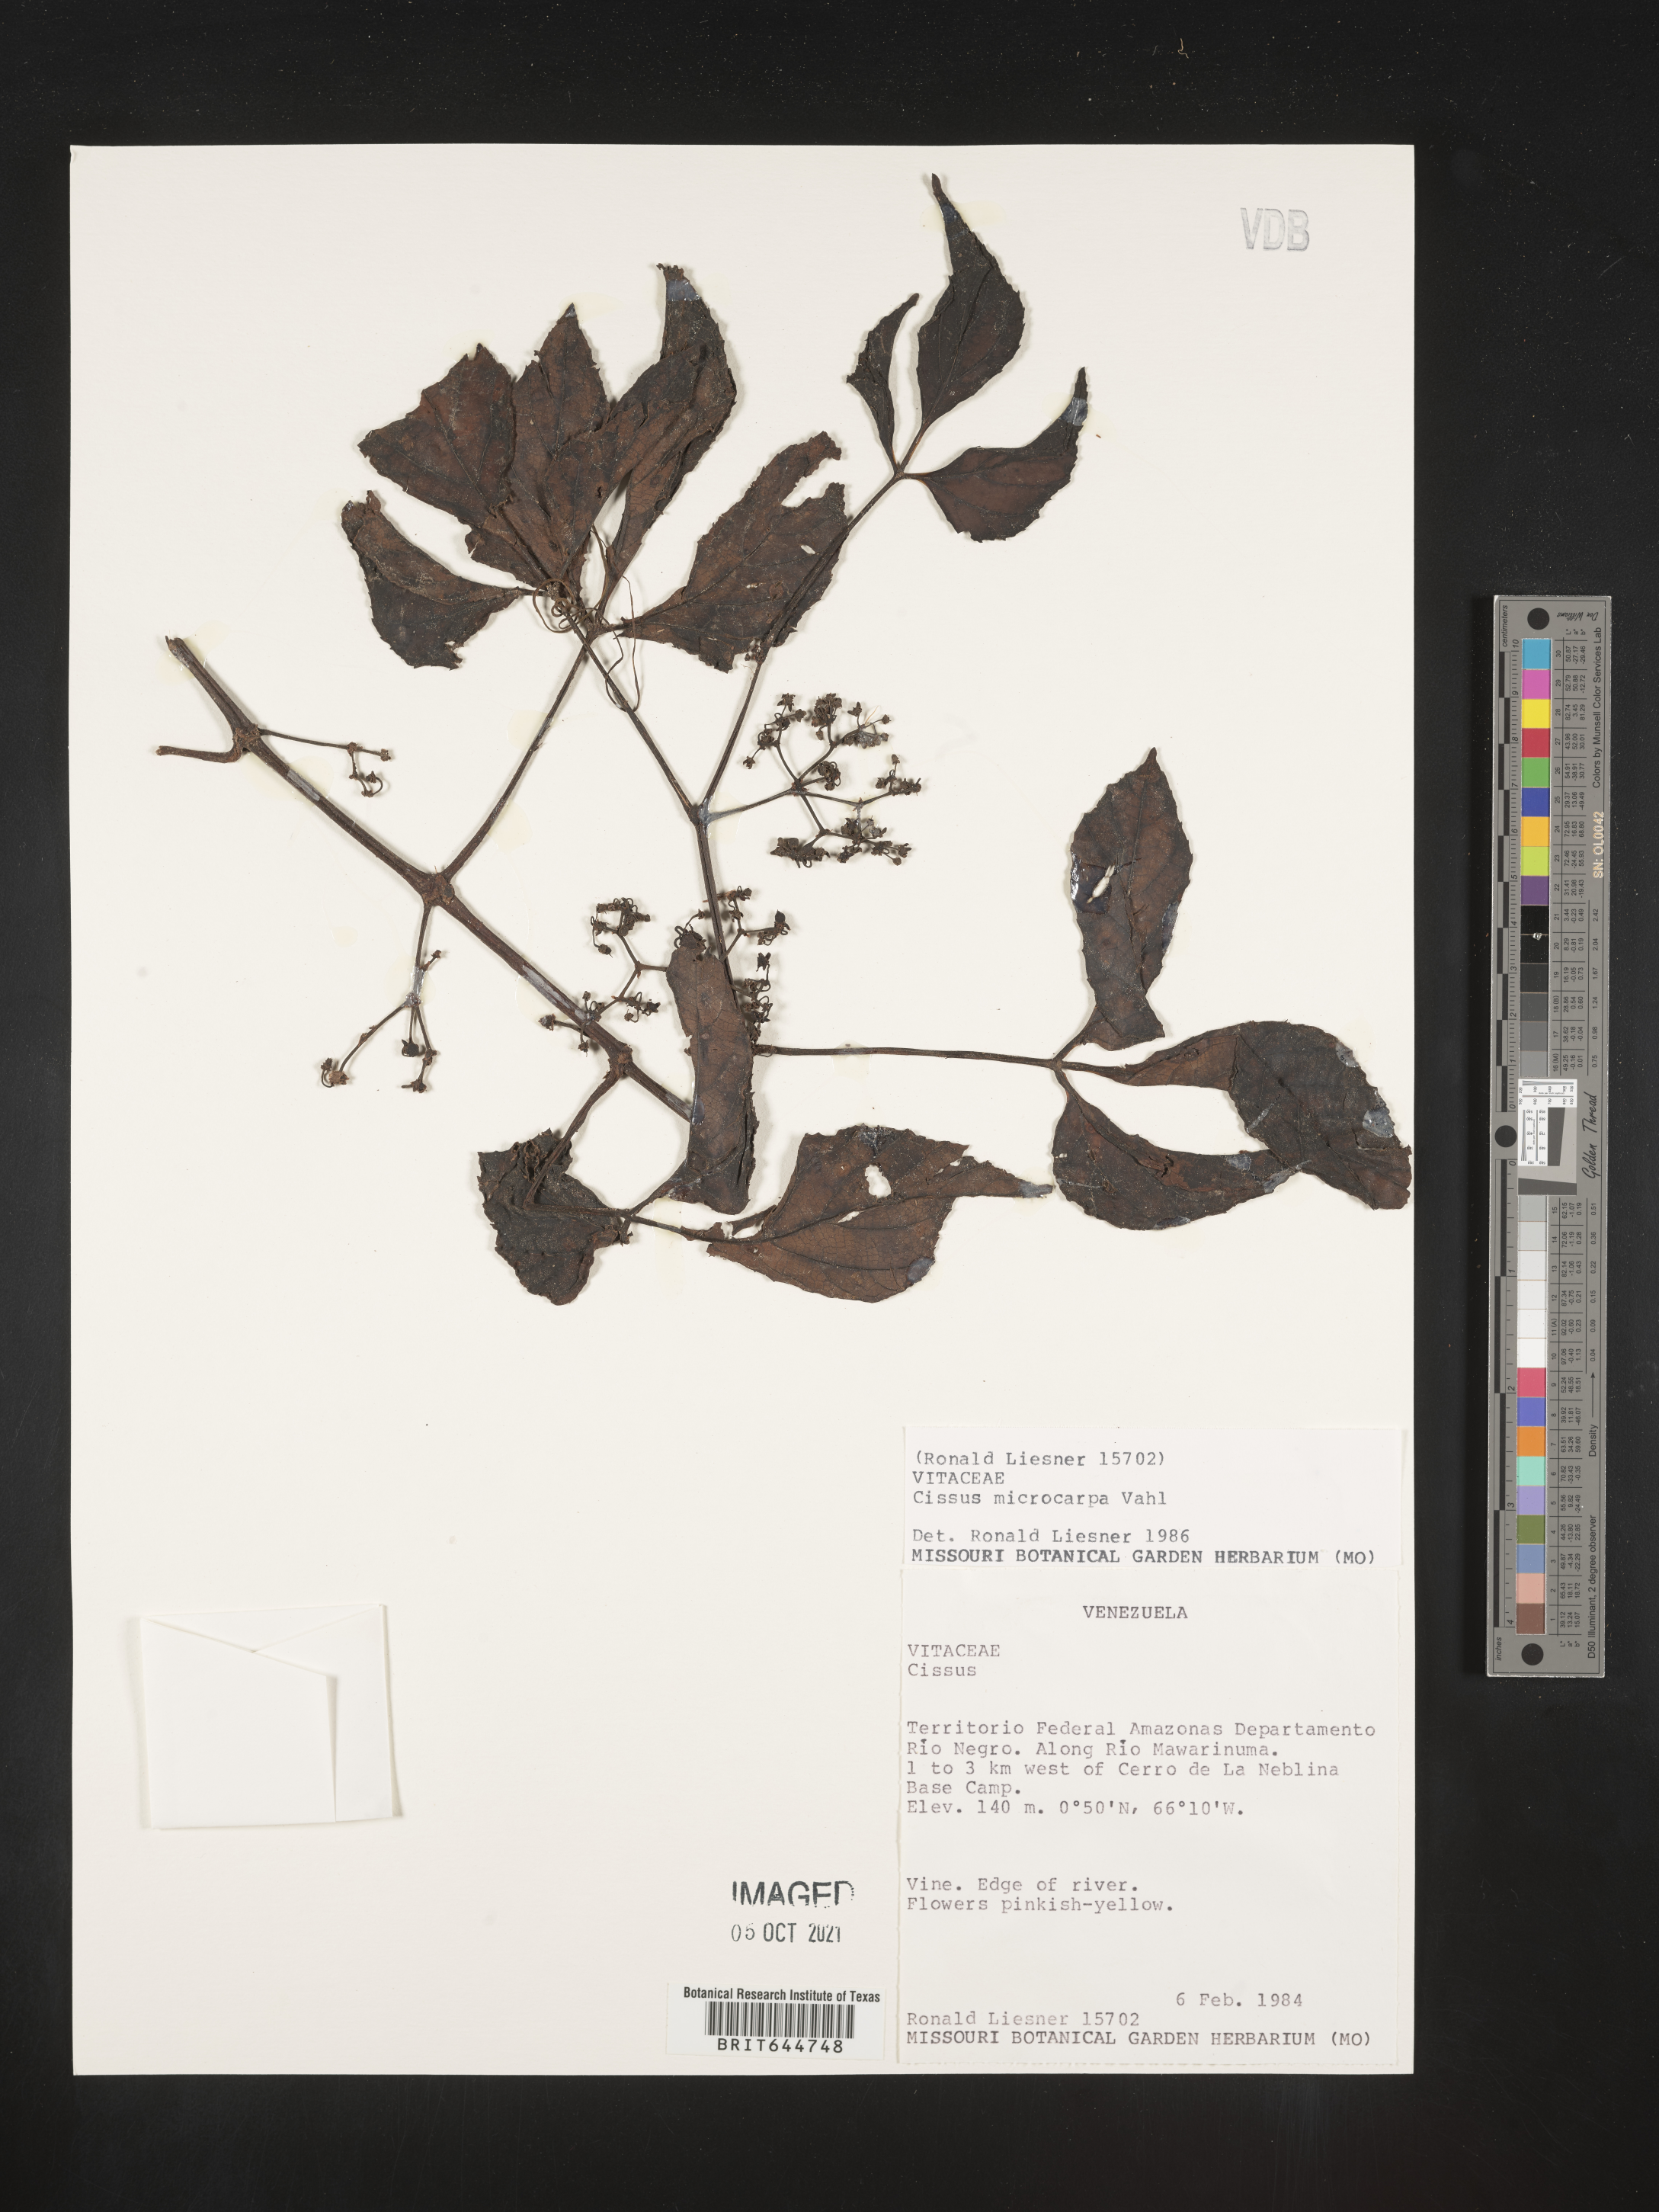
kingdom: Plantae
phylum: Tracheophyta
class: Magnoliopsida
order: Vitales
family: Vitaceae
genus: Cissus
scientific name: Cissus
